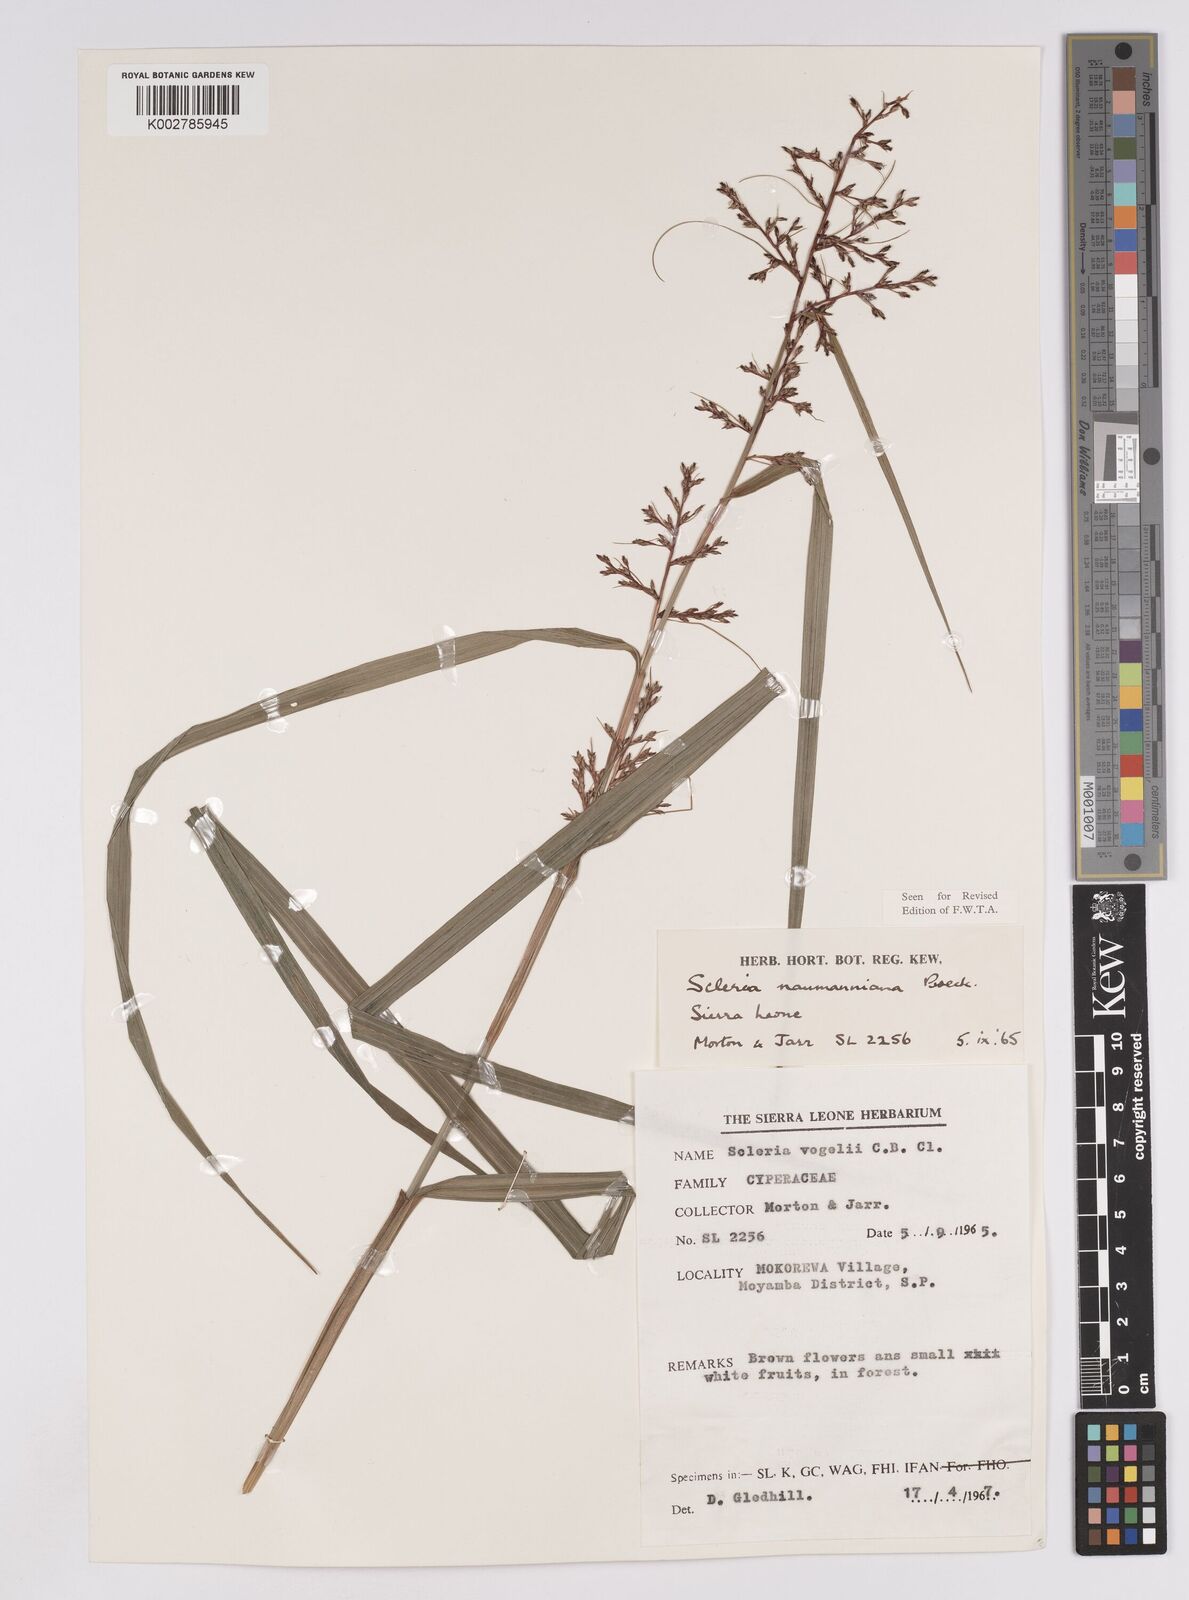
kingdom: Plantae
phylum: Tracheophyta
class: Liliopsida
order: Poales
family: Cyperaceae
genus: Scleria
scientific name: Scleria naumanniana
